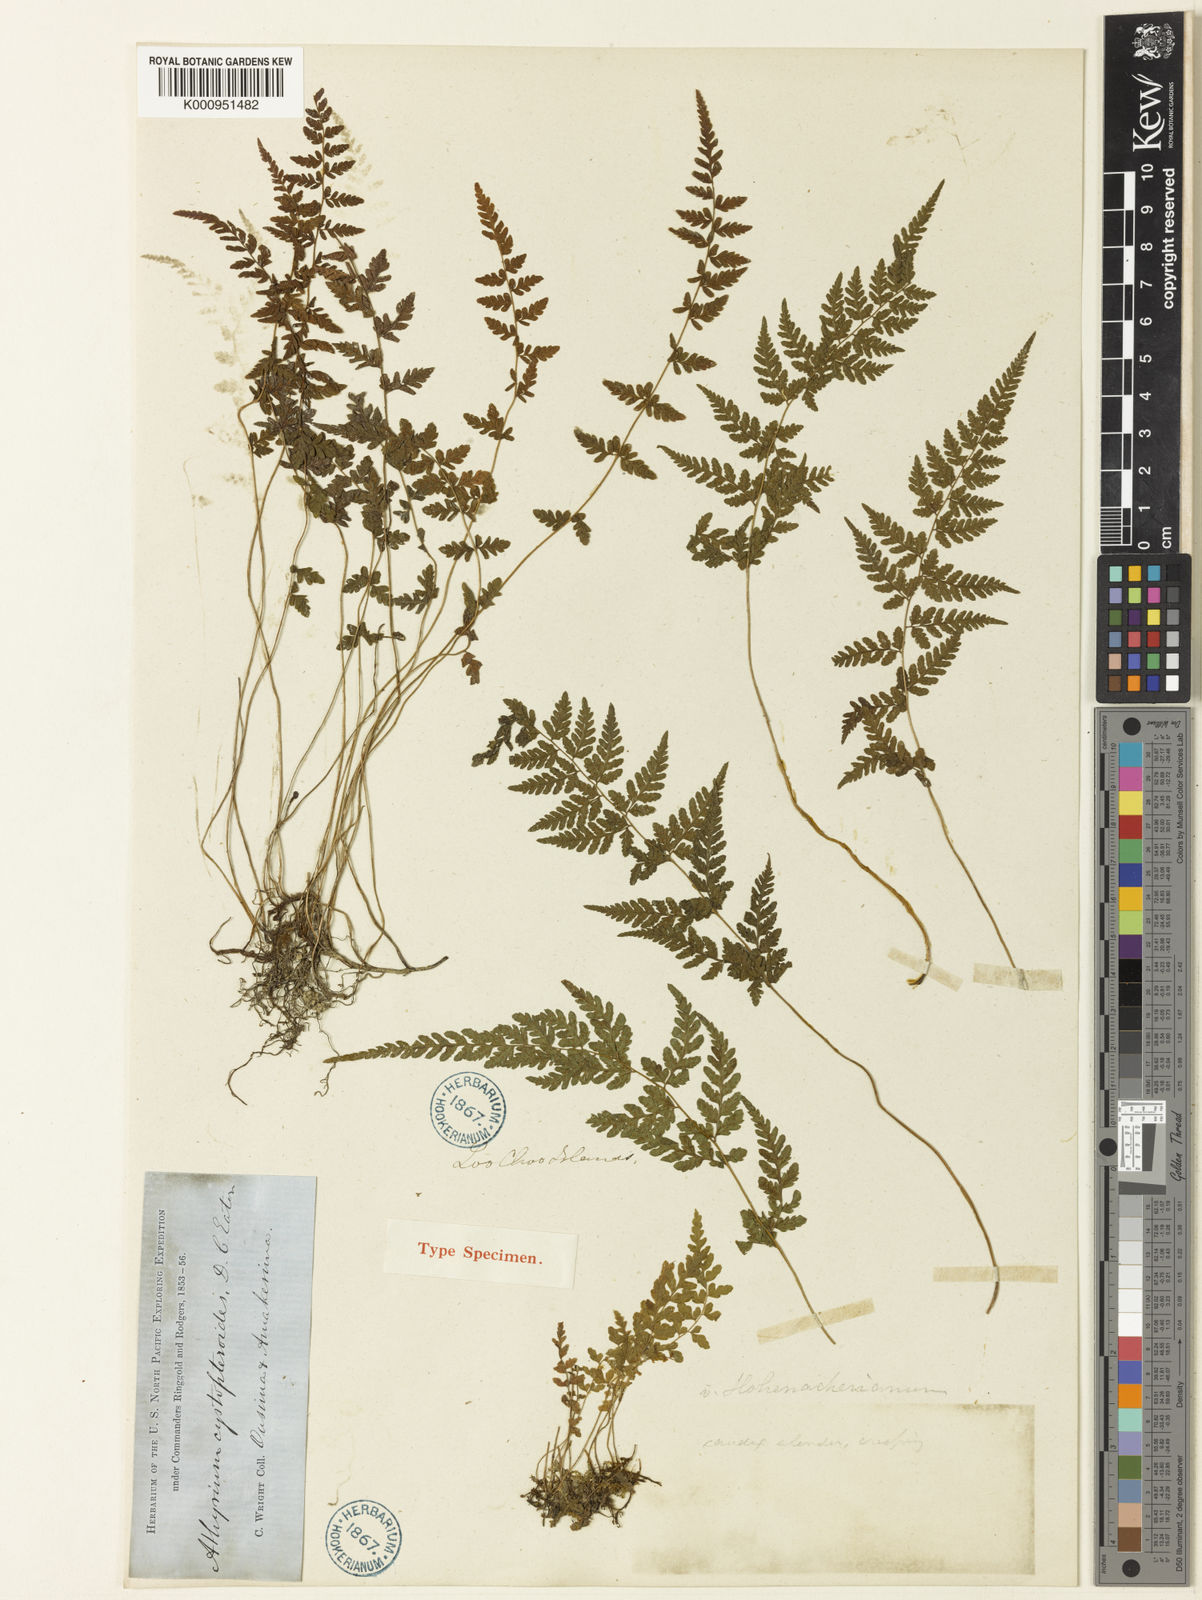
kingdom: Plantae
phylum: Tracheophyta
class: Polypodiopsida
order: Polypodiales
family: Thelypteridaceae
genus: Amauropelta
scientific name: Amauropelta cystopteroides
